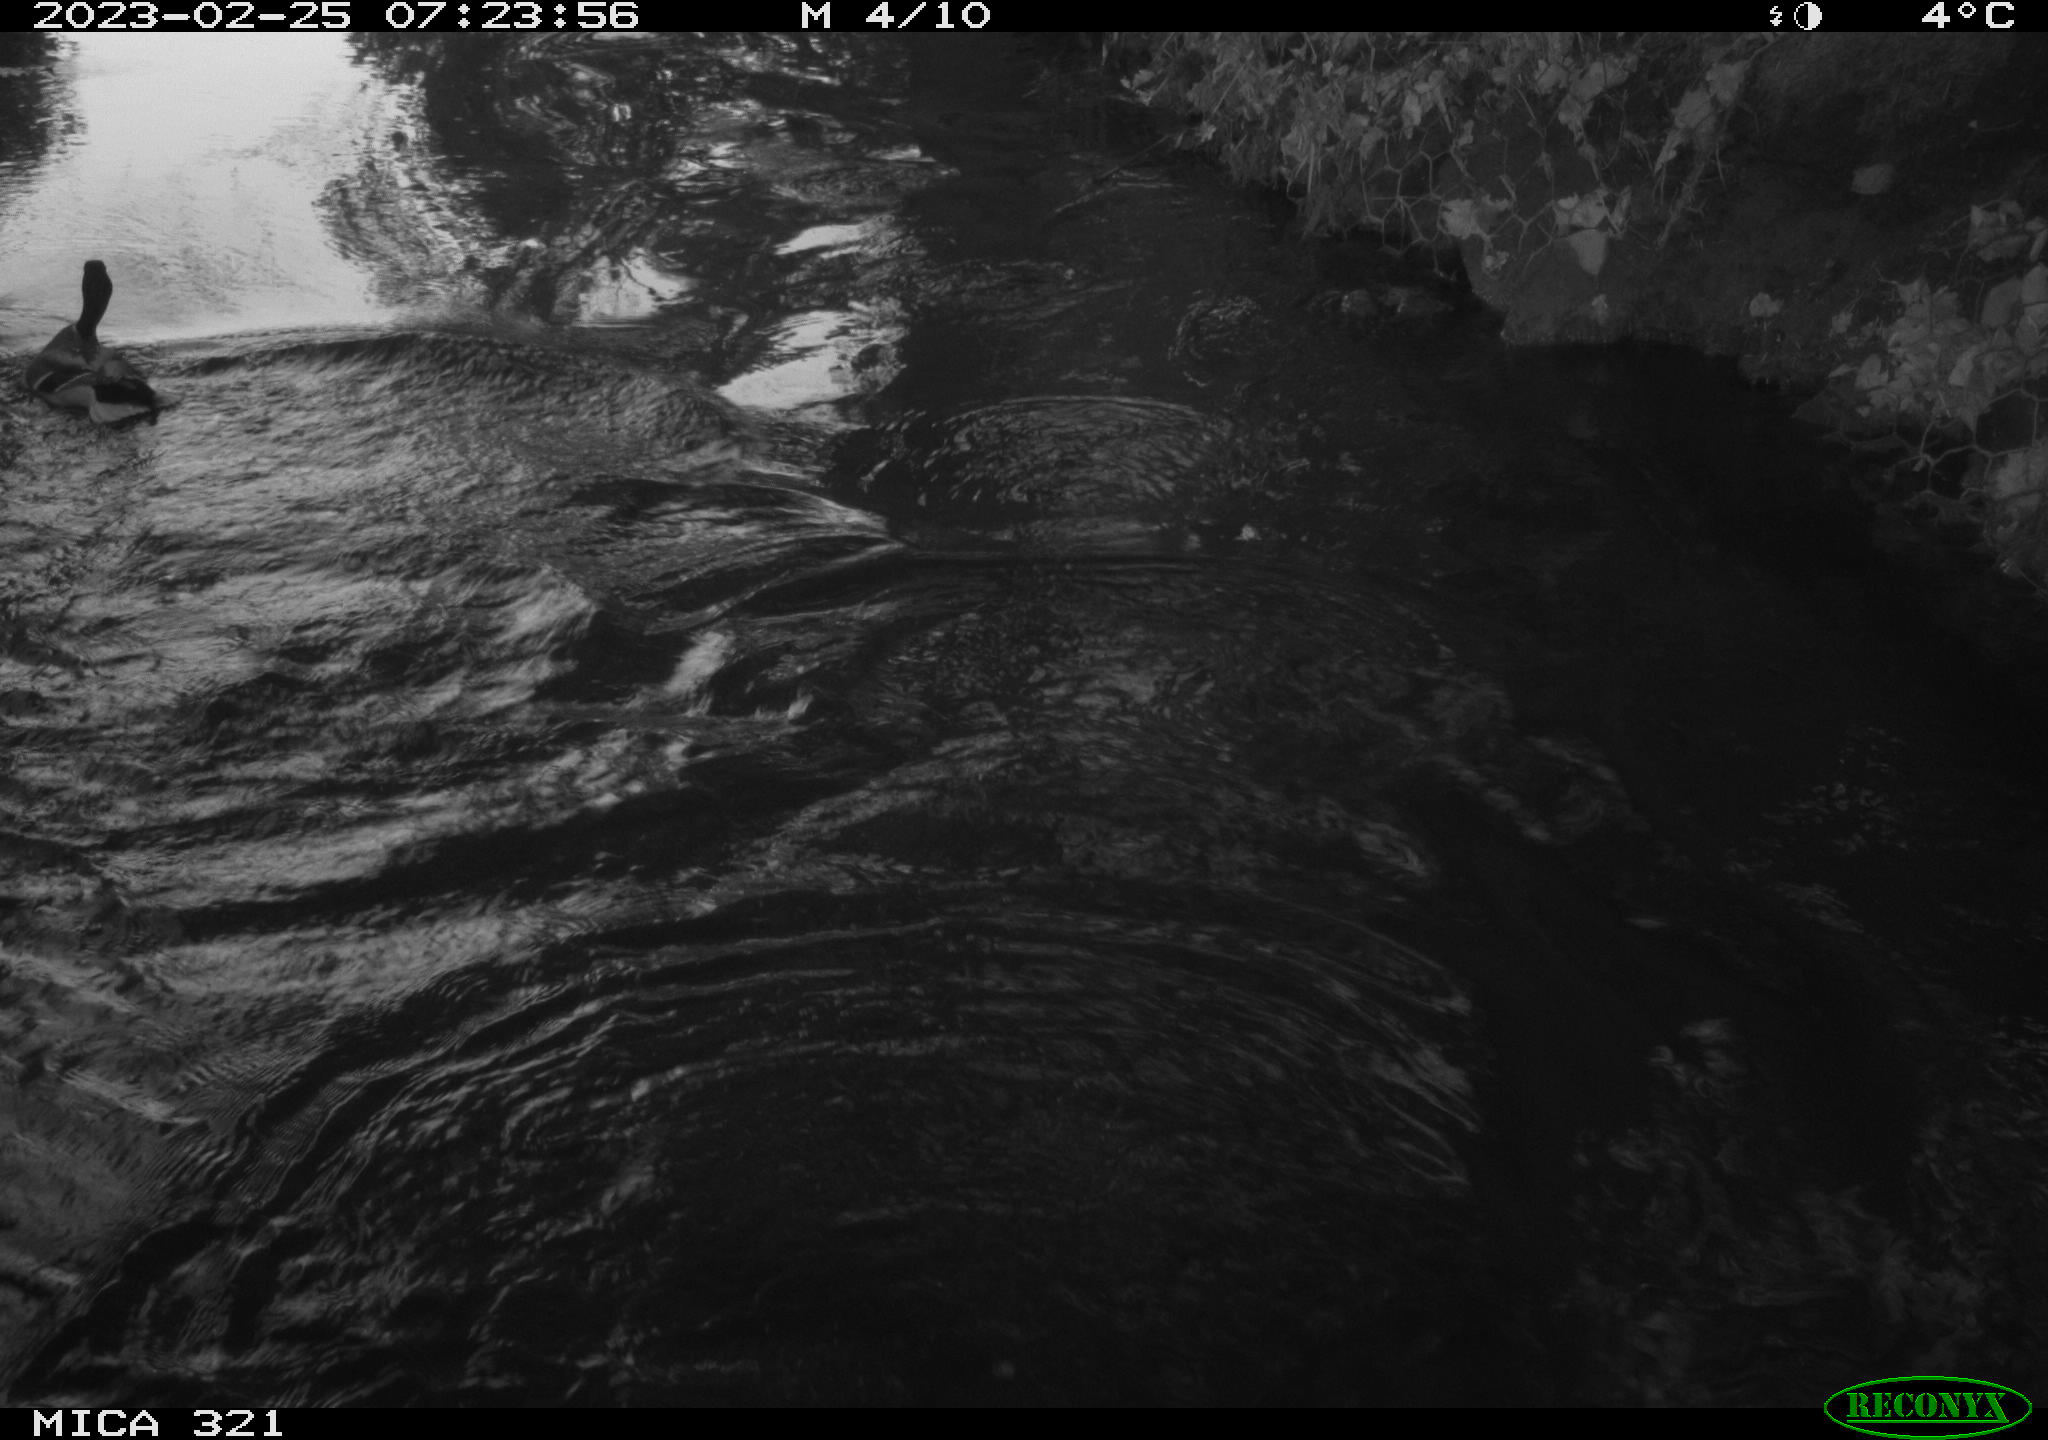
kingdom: Animalia
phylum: Chordata
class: Aves
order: Anseriformes
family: Anatidae
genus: Anas
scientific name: Anas
